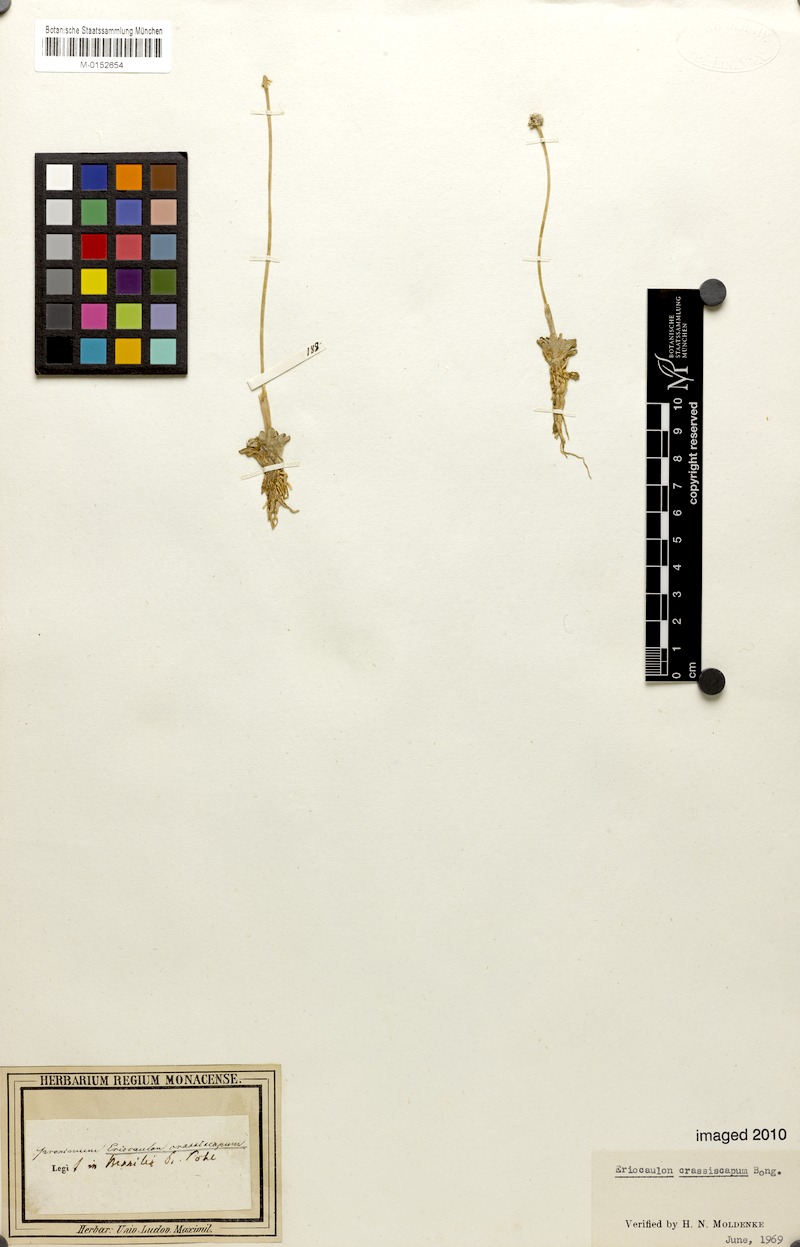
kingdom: Plantae
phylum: Tracheophyta
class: Liliopsida
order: Poales
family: Eriocaulaceae
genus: Eriocaulon
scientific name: Eriocaulon rosulatum
